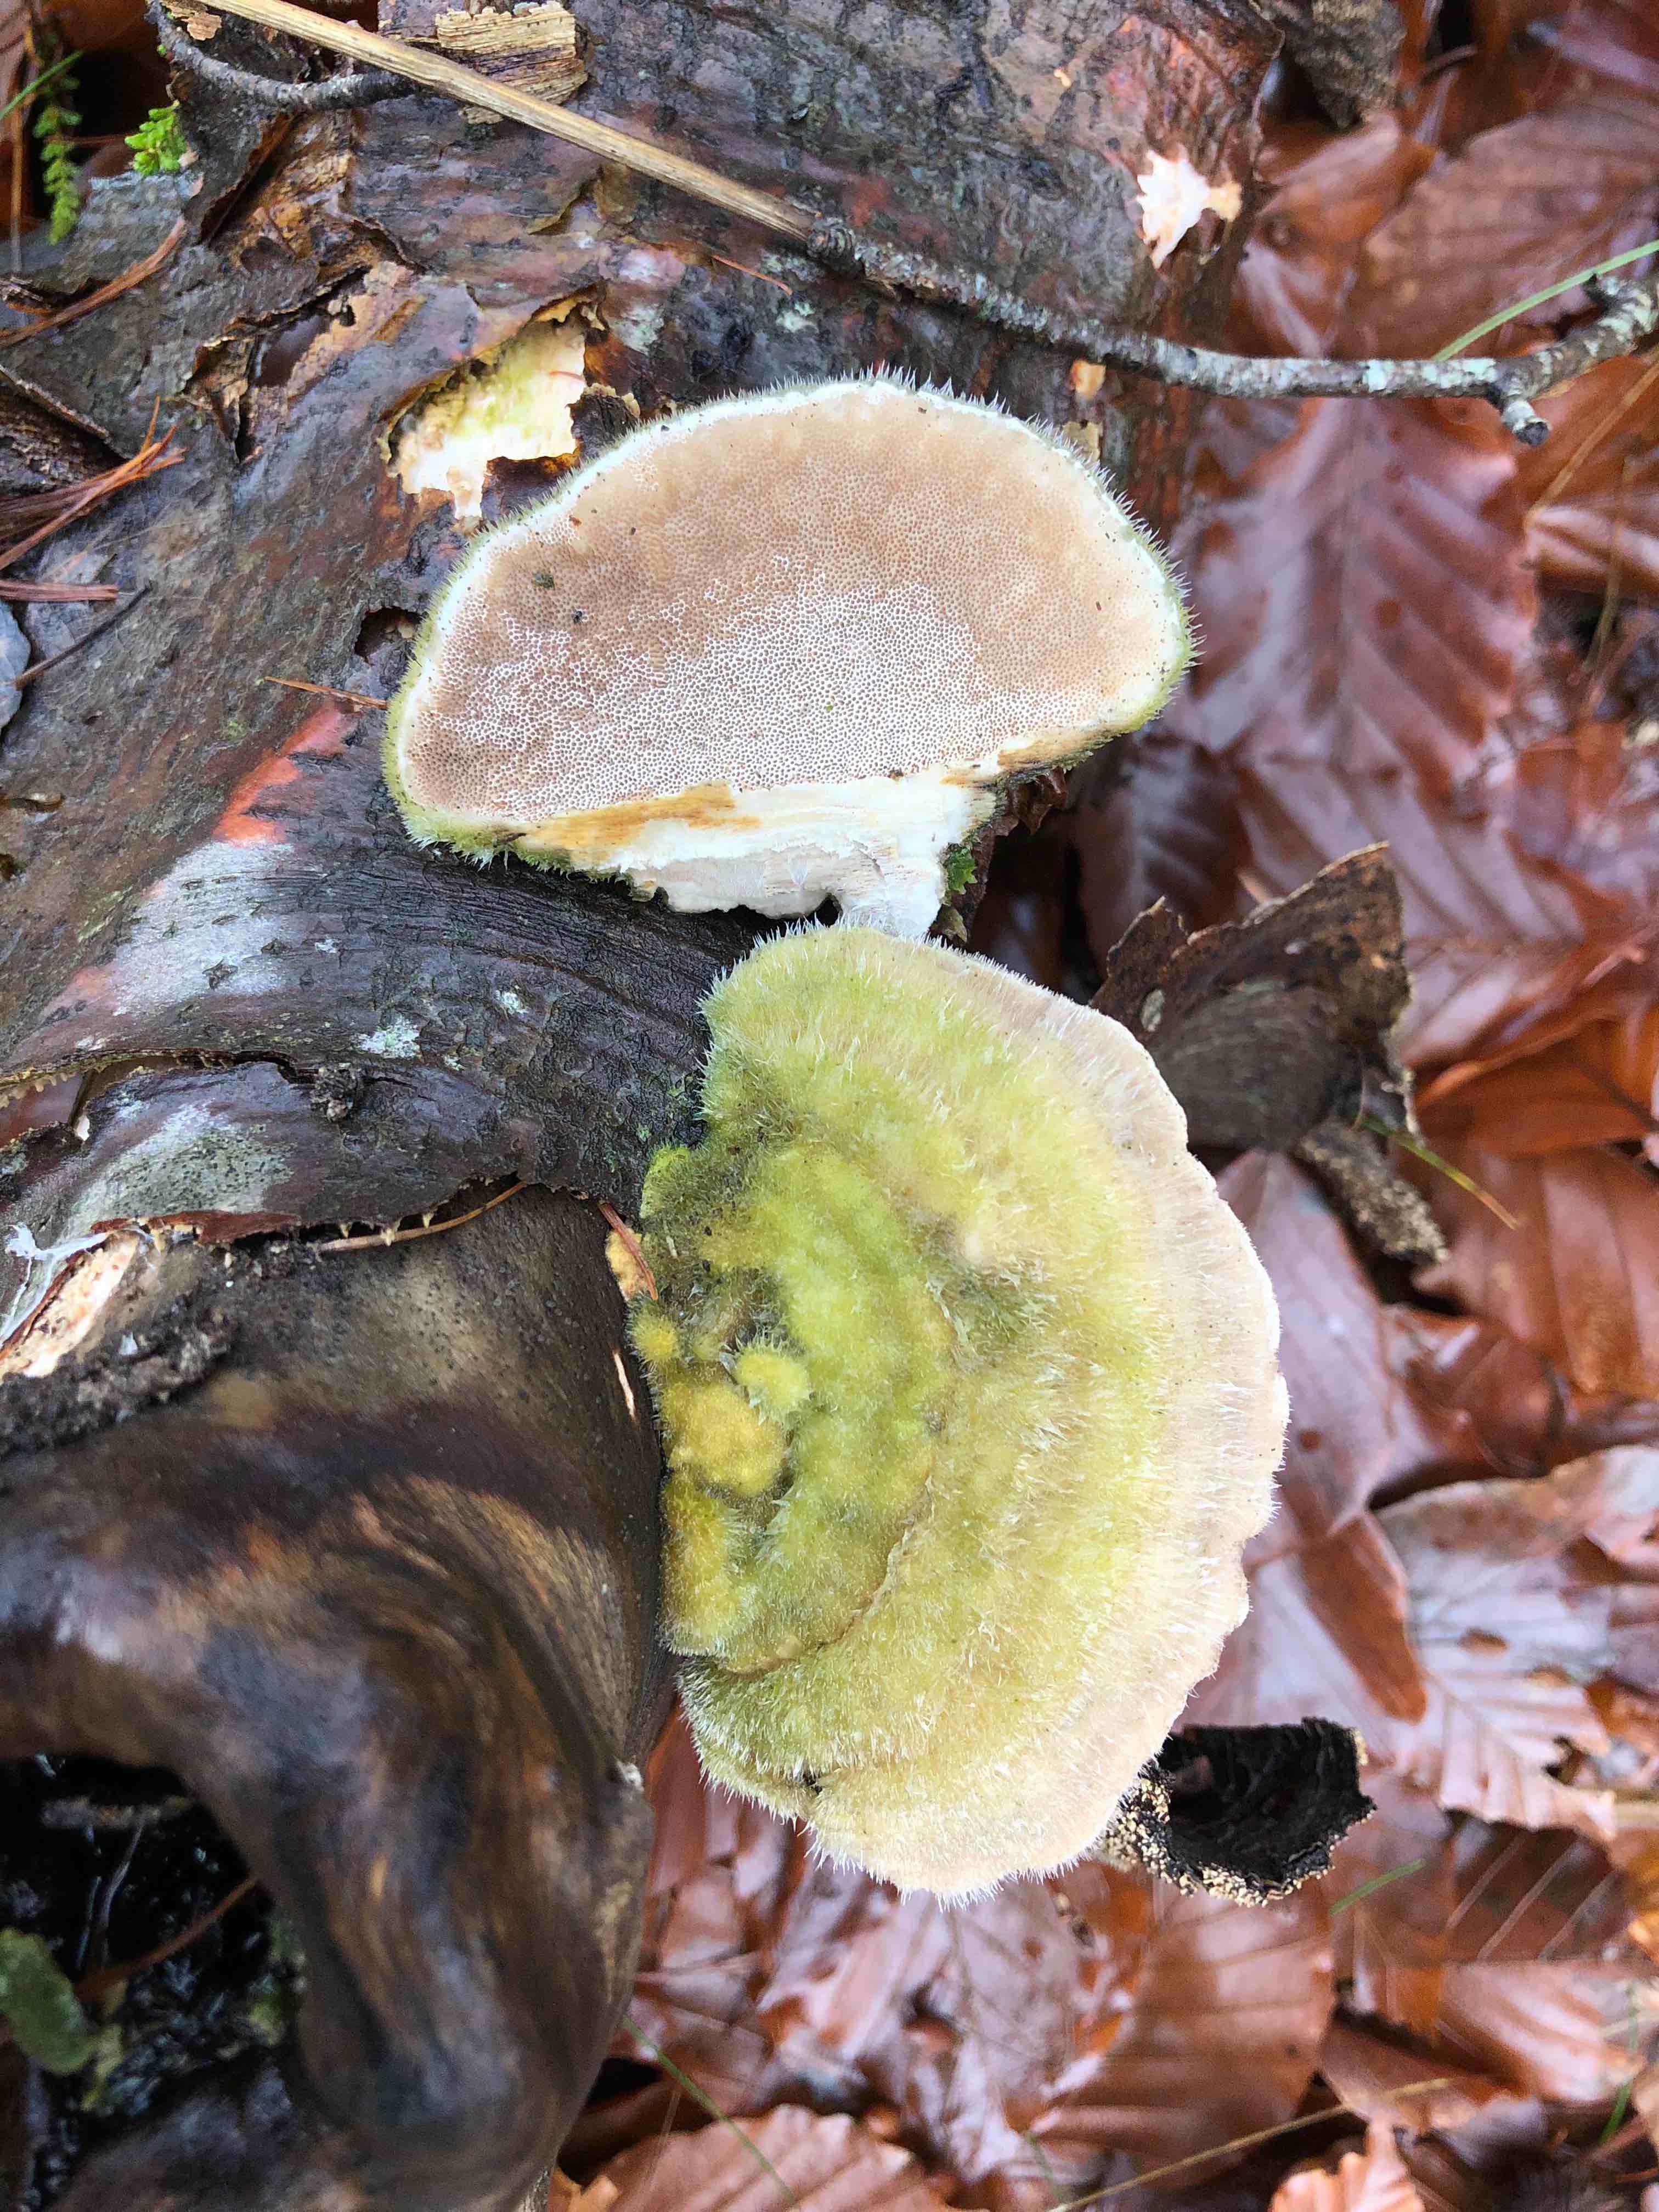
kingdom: Fungi
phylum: Basidiomycota
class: Agaricomycetes
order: Polyporales
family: Polyporaceae
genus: Trametes
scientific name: Trametes hirsuta
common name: håret læderporesvamp
